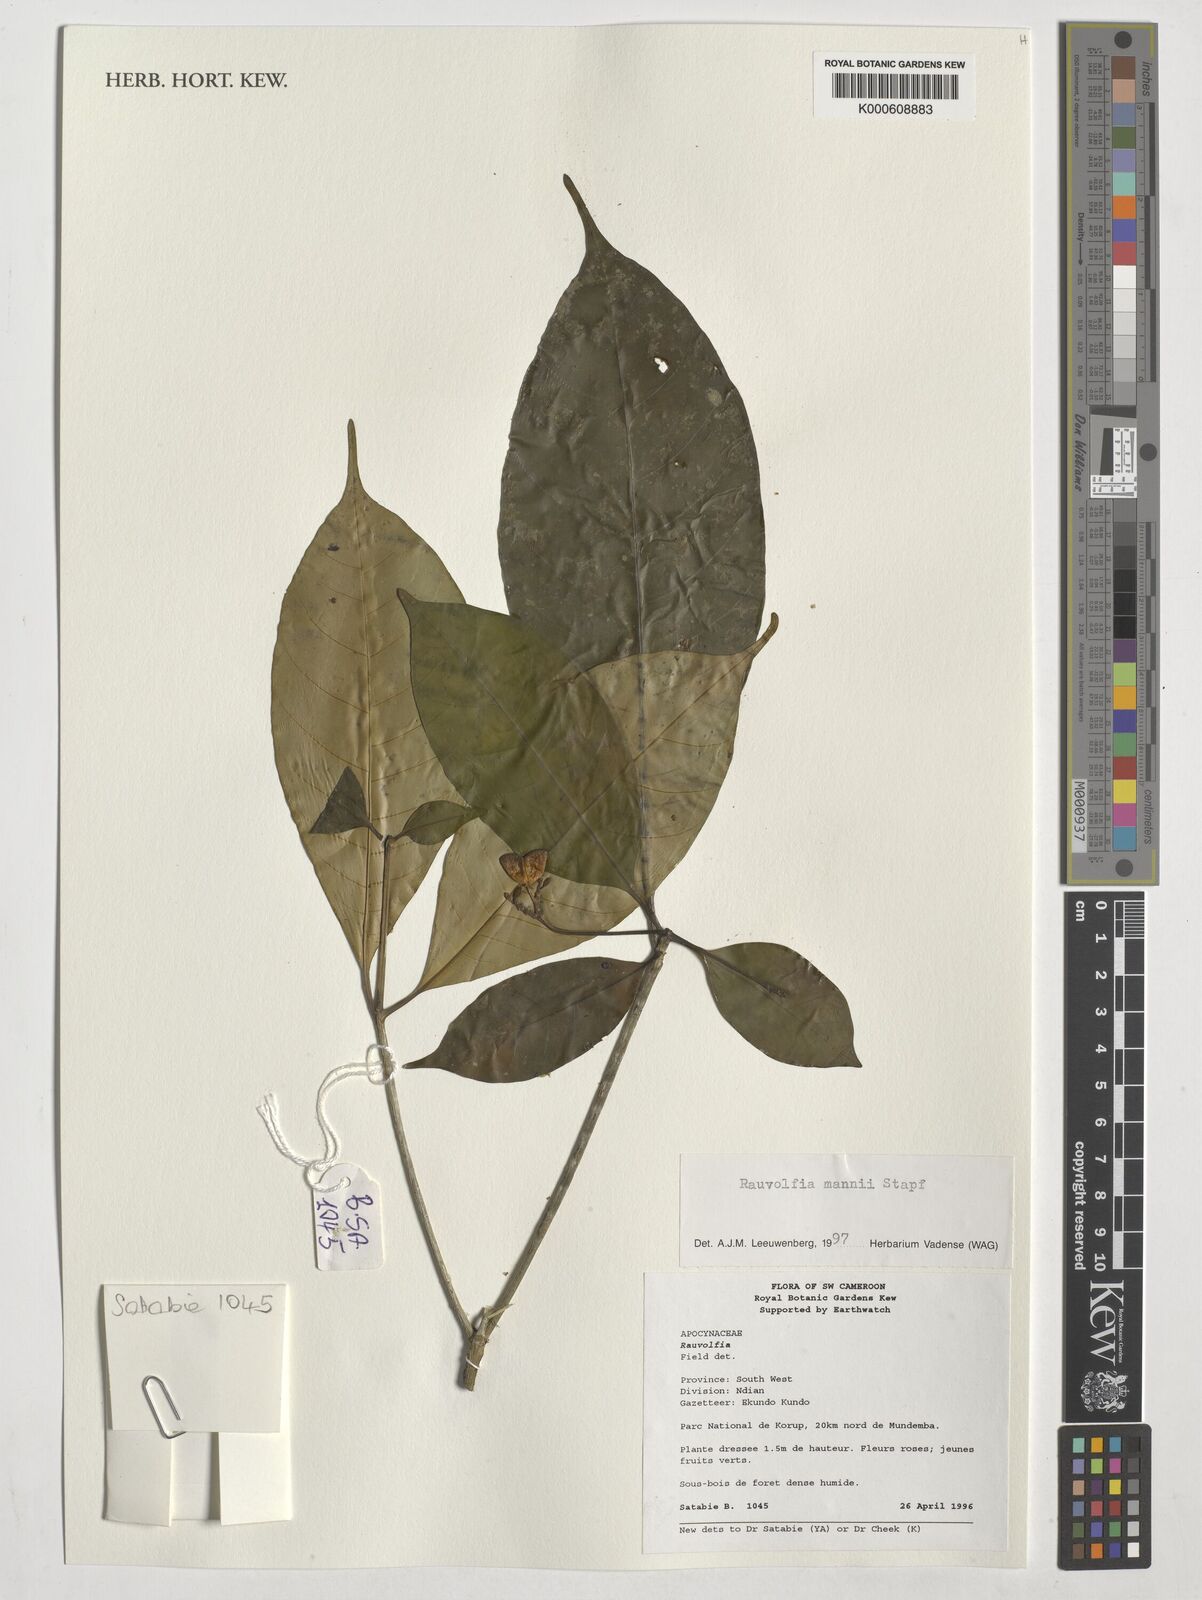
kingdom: Plantae
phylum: Tracheophyta
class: Magnoliopsida
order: Gentianales
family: Apocynaceae
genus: Rauvolfia
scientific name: Rauvolfia mannii
